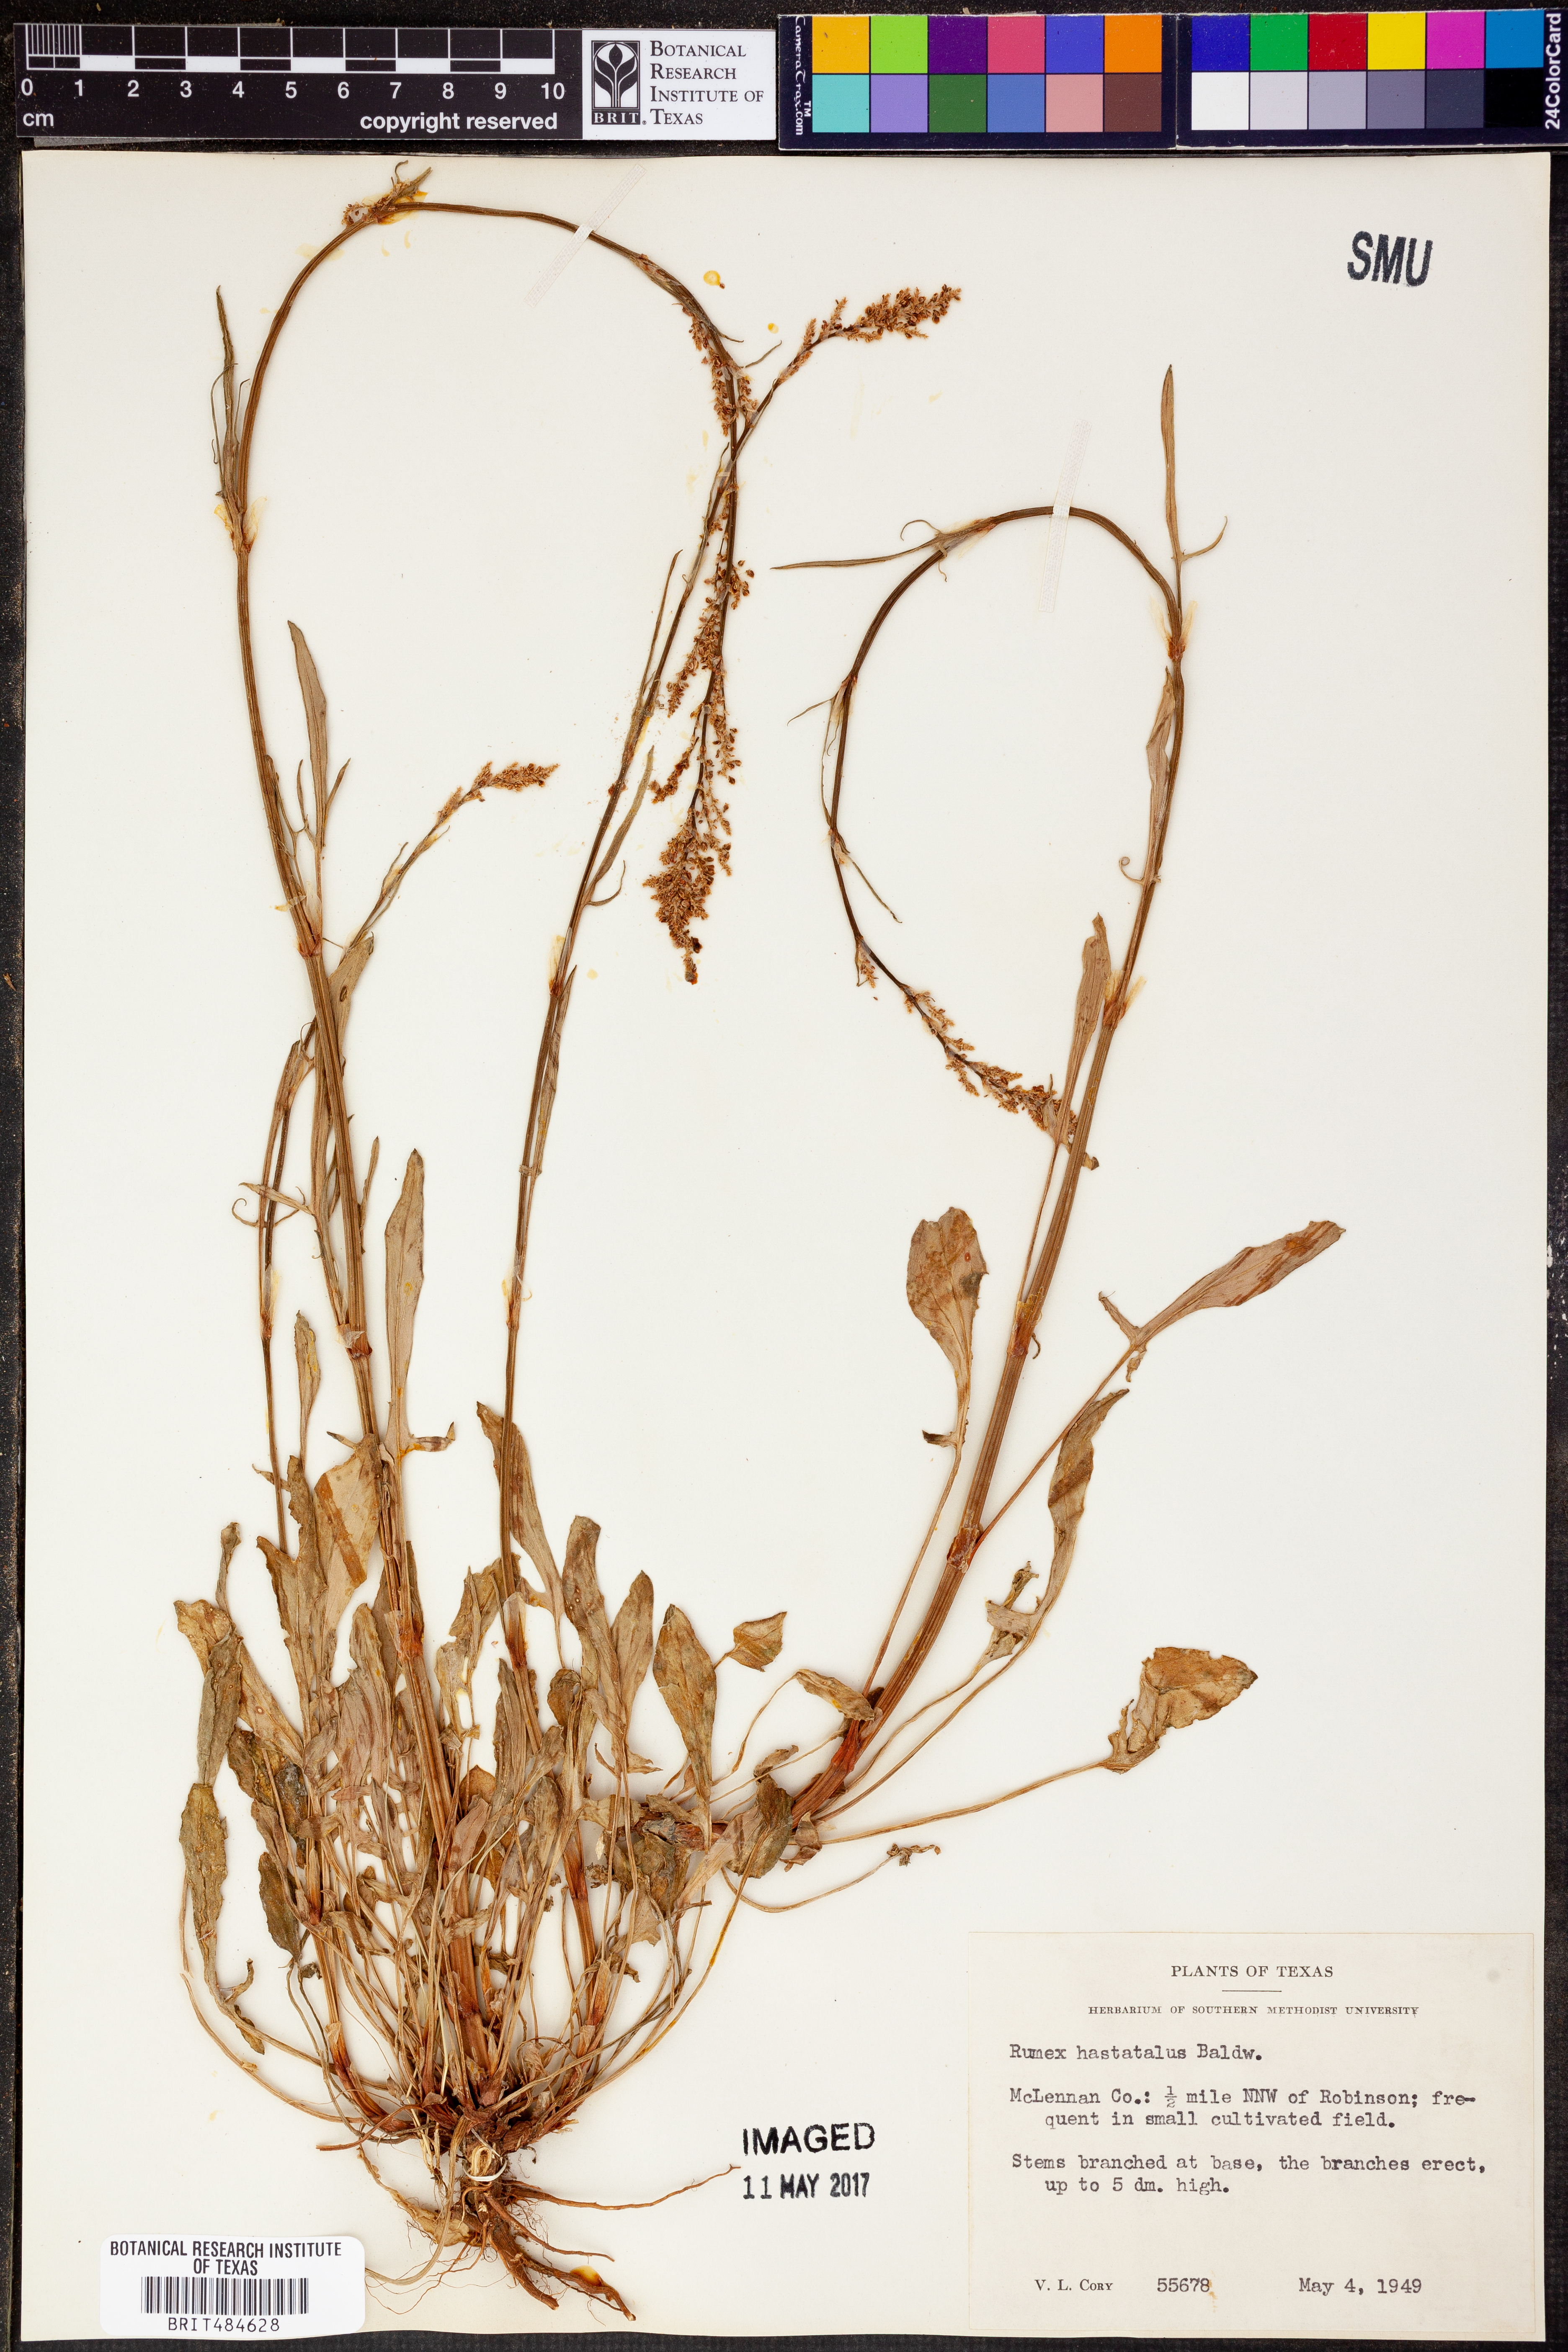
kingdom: Plantae
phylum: Tracheophyta
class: Magnoliopsida
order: Caryophyllales
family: Polygonaceae
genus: Rumex
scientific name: Rumex hastatulus
